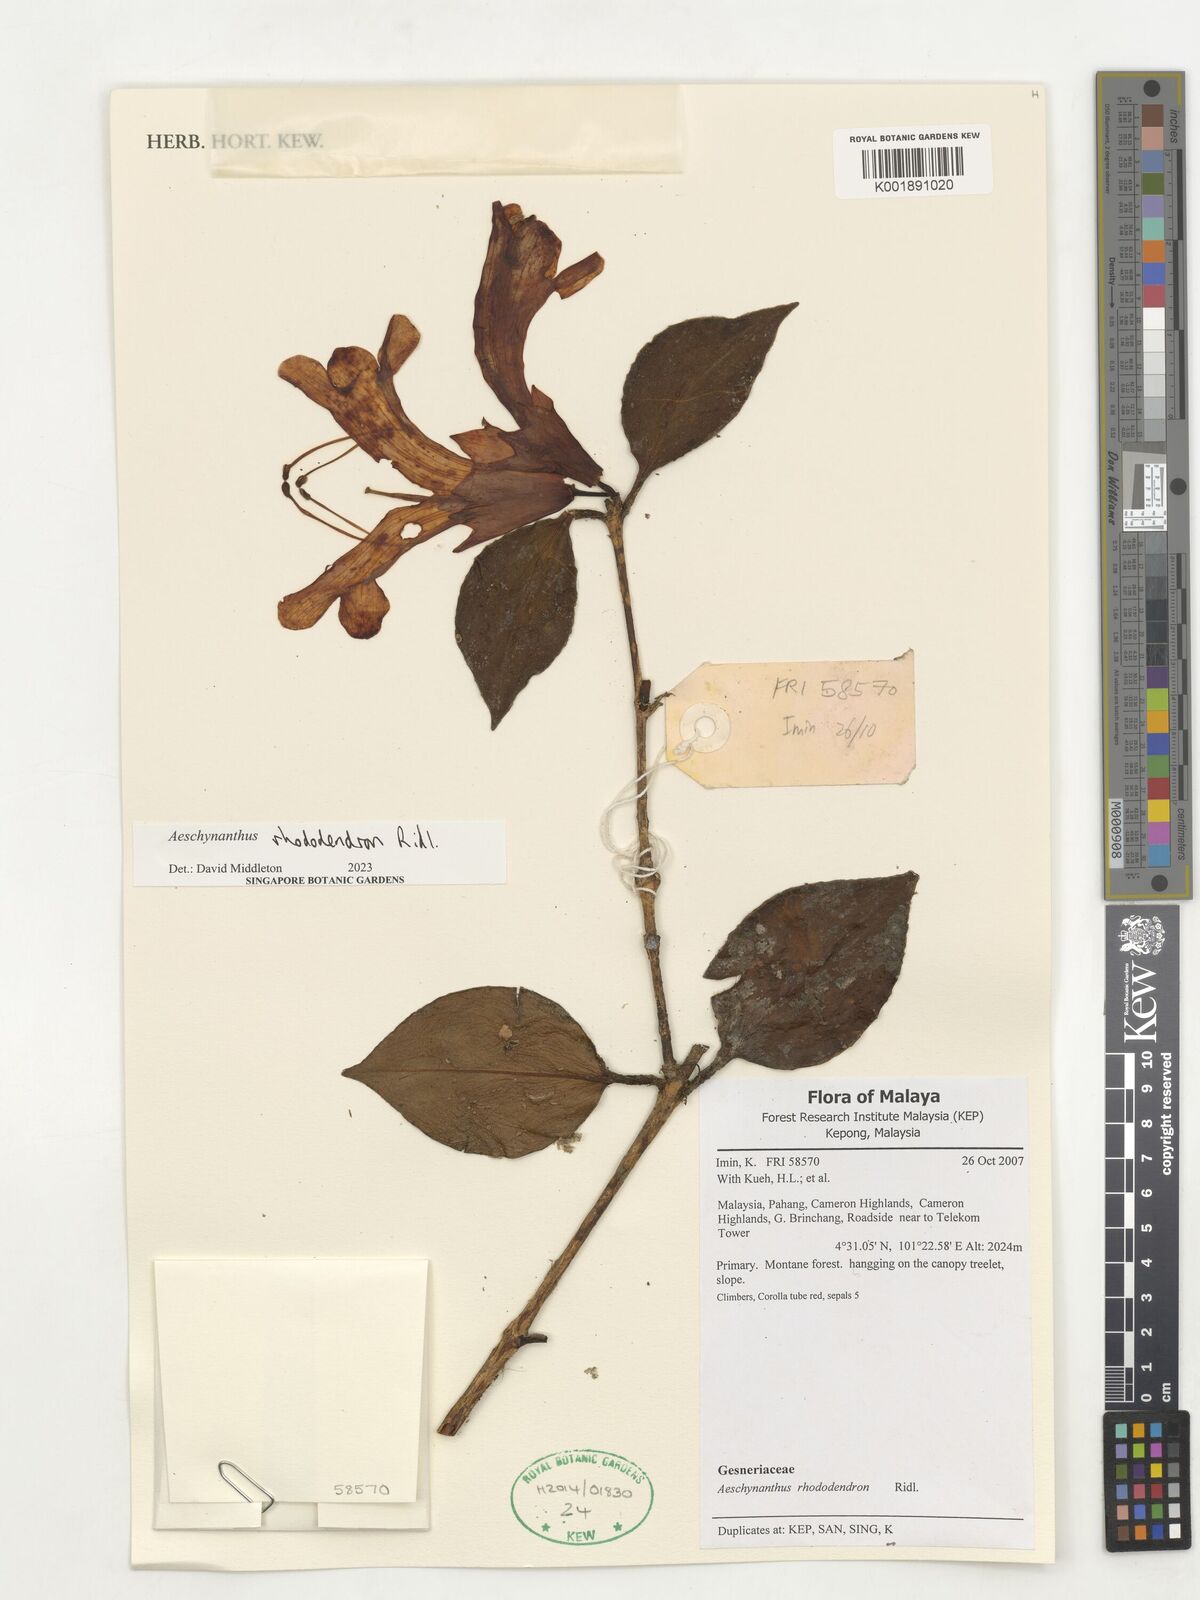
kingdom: Plantae
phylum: Tracheophyta
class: Magnoliopsida
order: Lamiales
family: Gesneriaceae
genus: Aeschynanthus
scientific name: Aeschynanthus rhododendron
